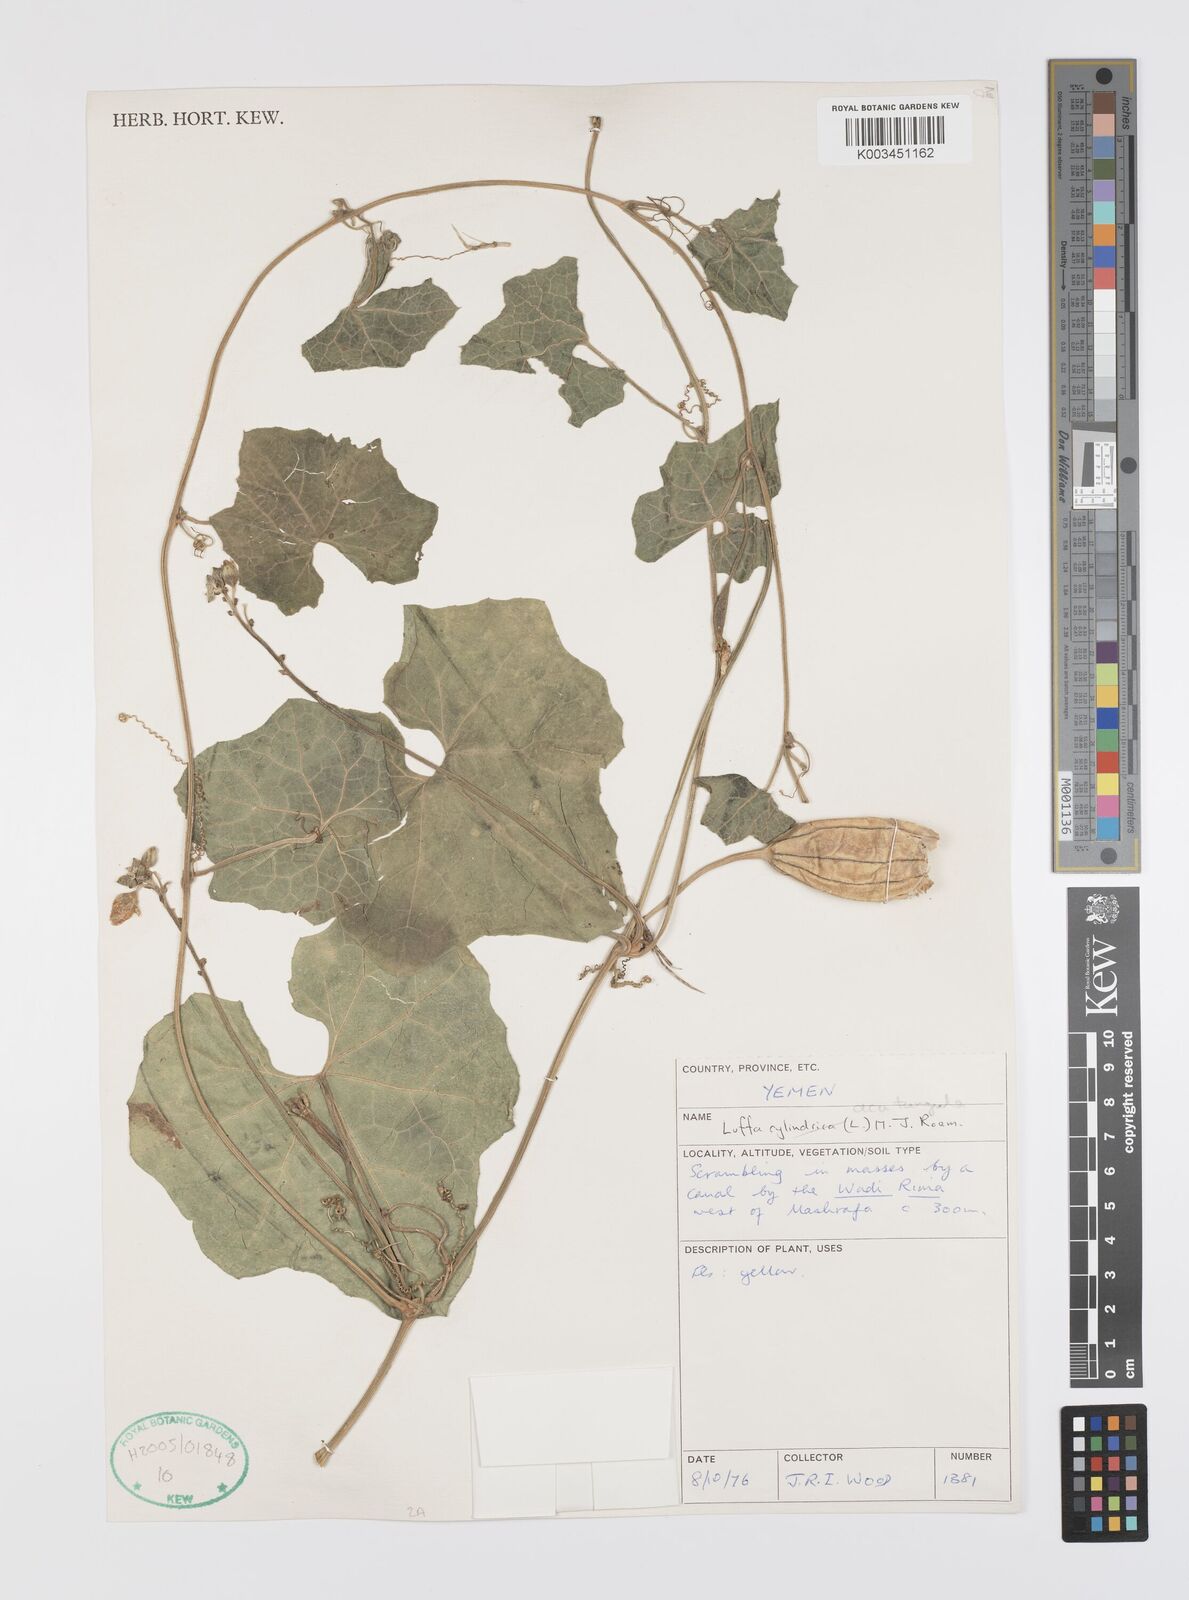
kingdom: Plantae
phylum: Tracheophyta
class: Magnoliopsida
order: Cucurbitales
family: Cucurbitaceae
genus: Luffa
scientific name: Luffa acutangula
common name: Sinkwa towelsponge
